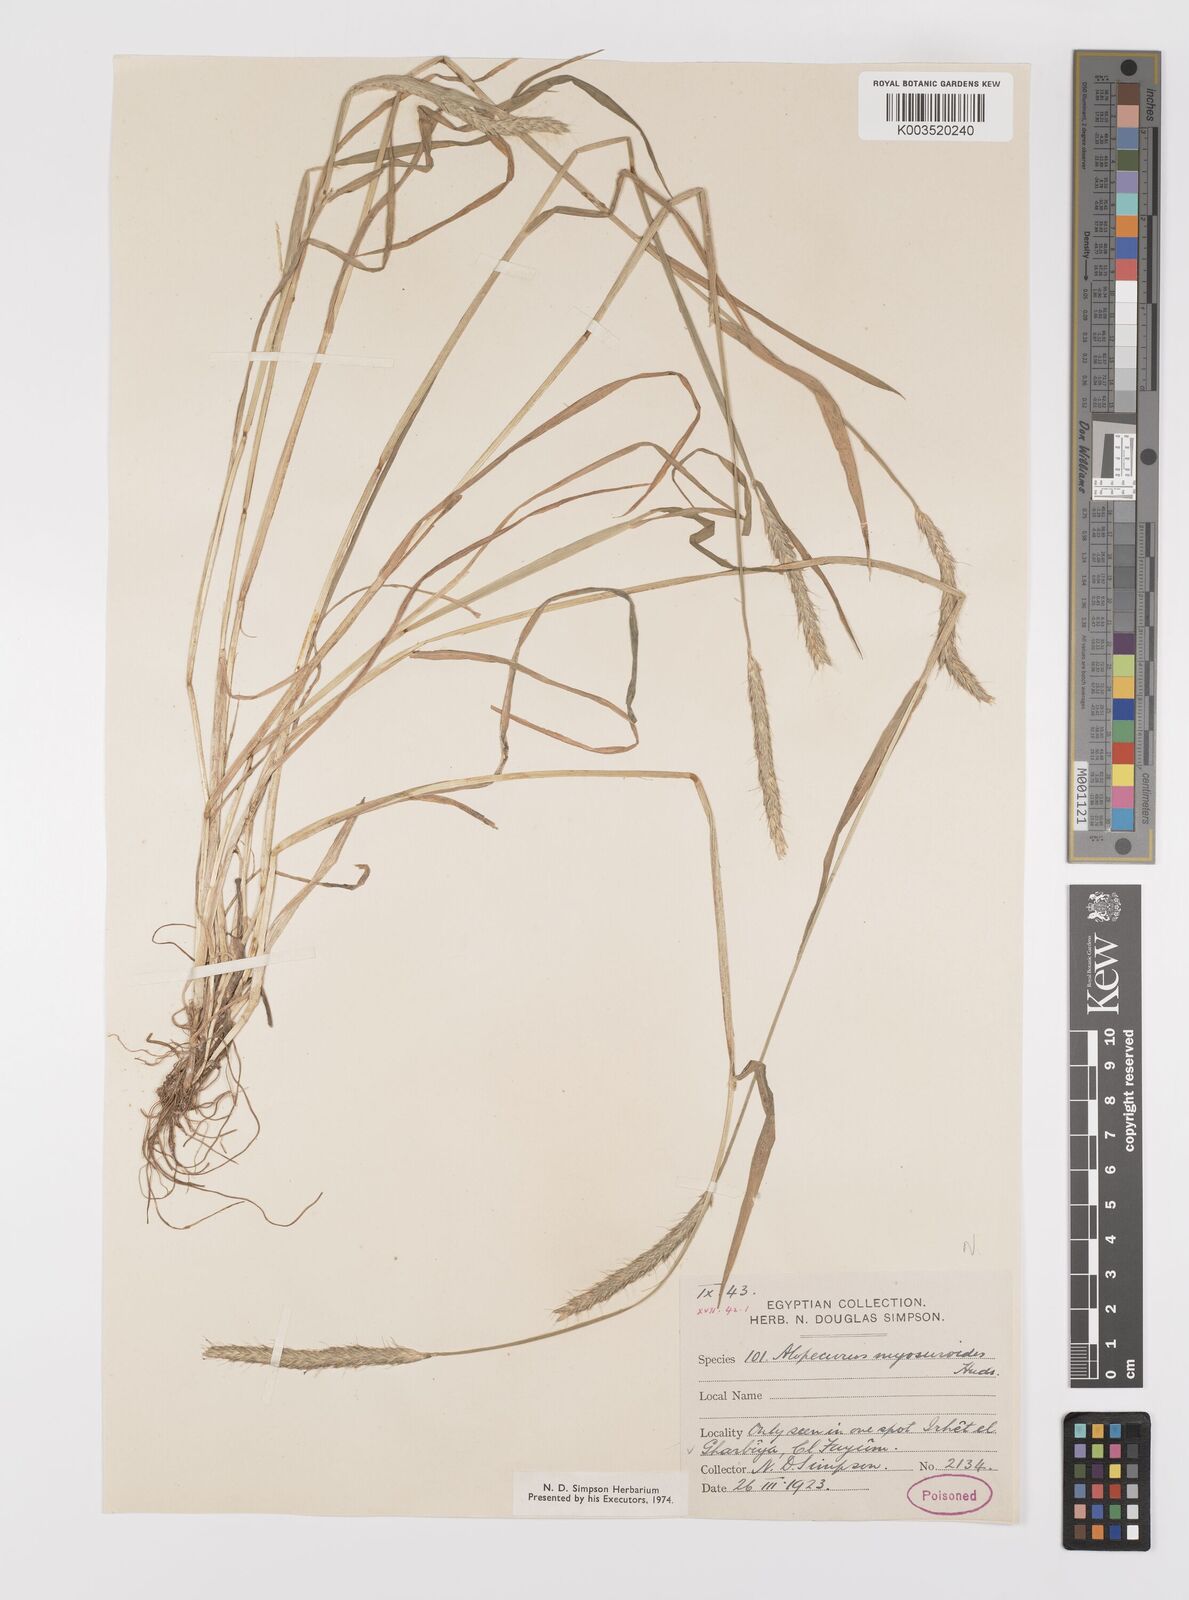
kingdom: Plantae
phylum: Tracheophyta
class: Liliopsida
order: Poales
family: Poaceae
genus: Alopecurus
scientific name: Alopecurus myosuroides
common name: Black-grass
